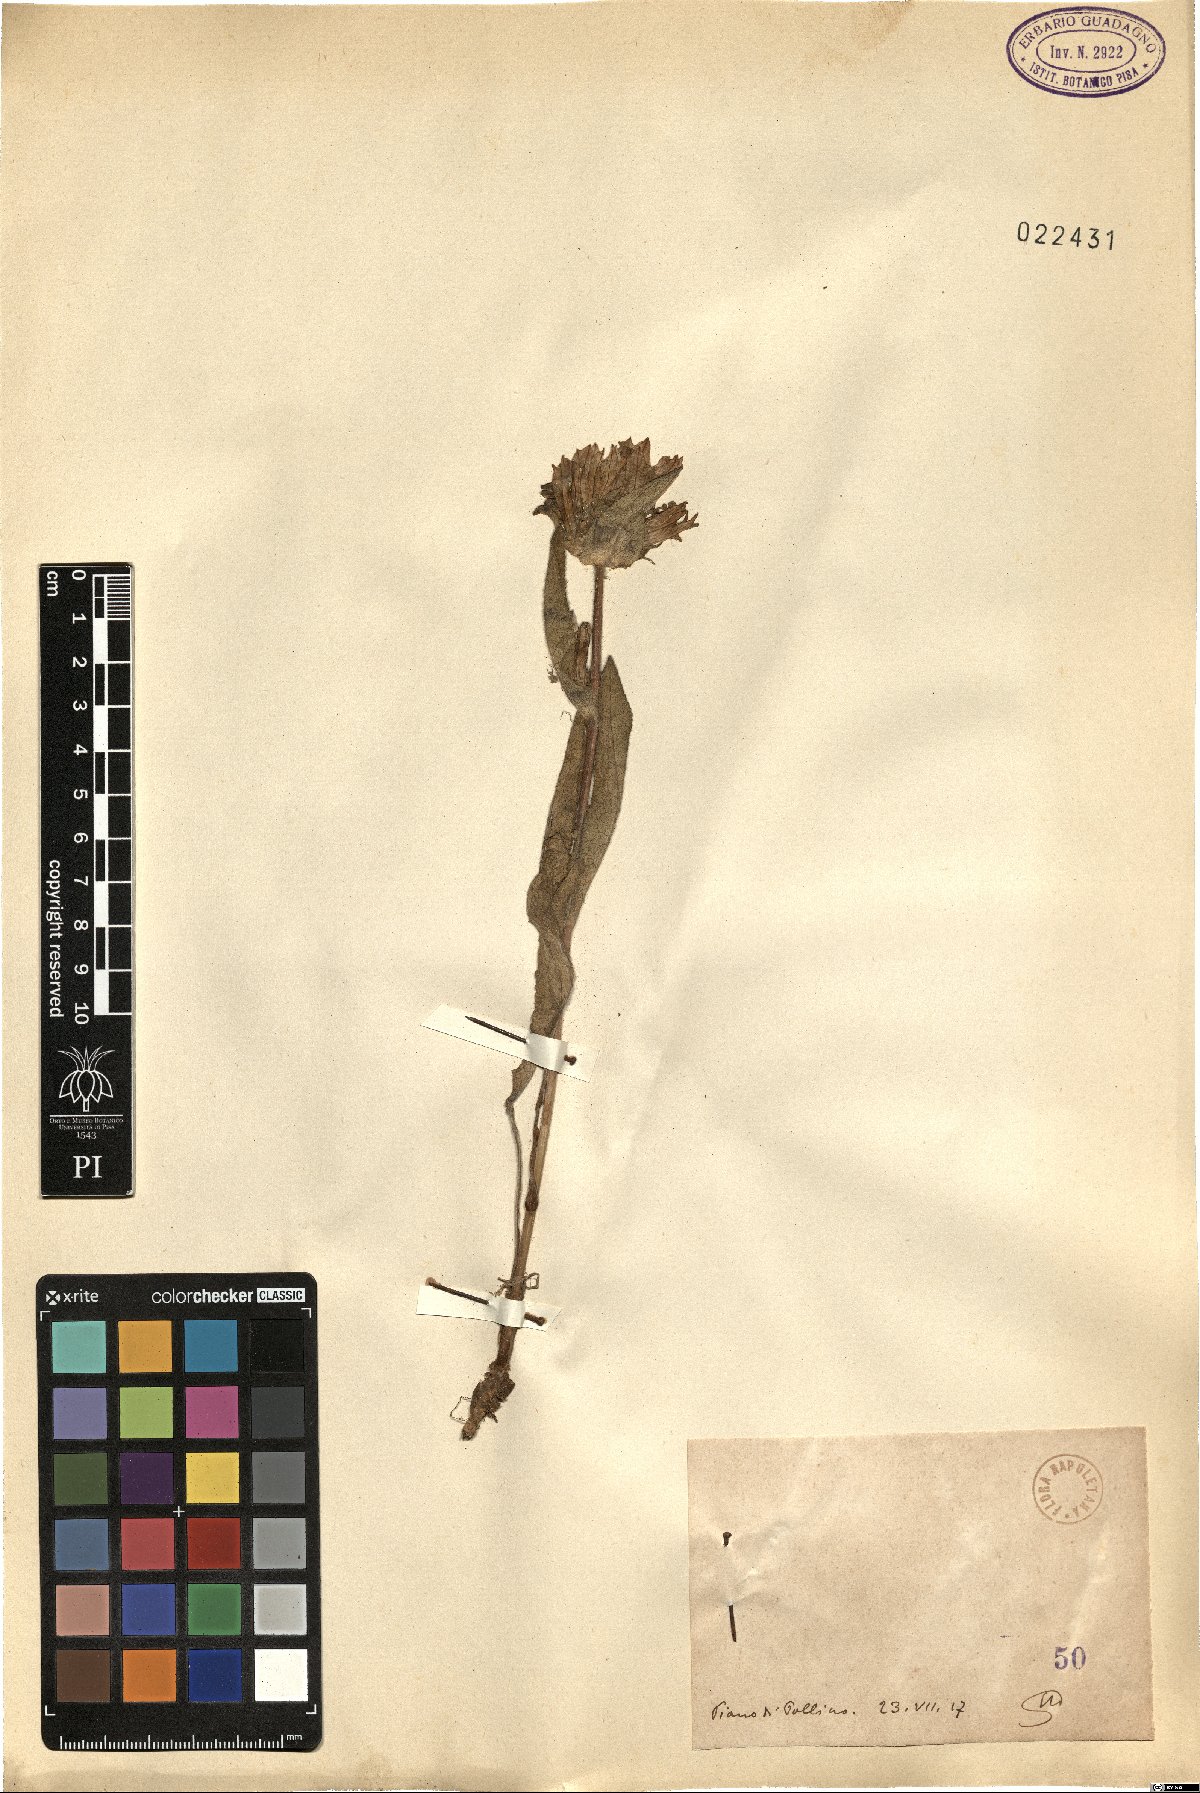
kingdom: Plantae
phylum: Tracheophyta
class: Magnoliopsida
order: Asterales
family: Campanulaceae
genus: Campanula
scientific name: Campanula
